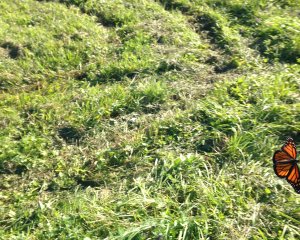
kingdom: Animalia
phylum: Arthropoda
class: Insecta
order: Lepidoptera
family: Nymphalidae
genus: Danaus
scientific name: Danaus plexippus
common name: Monarch
